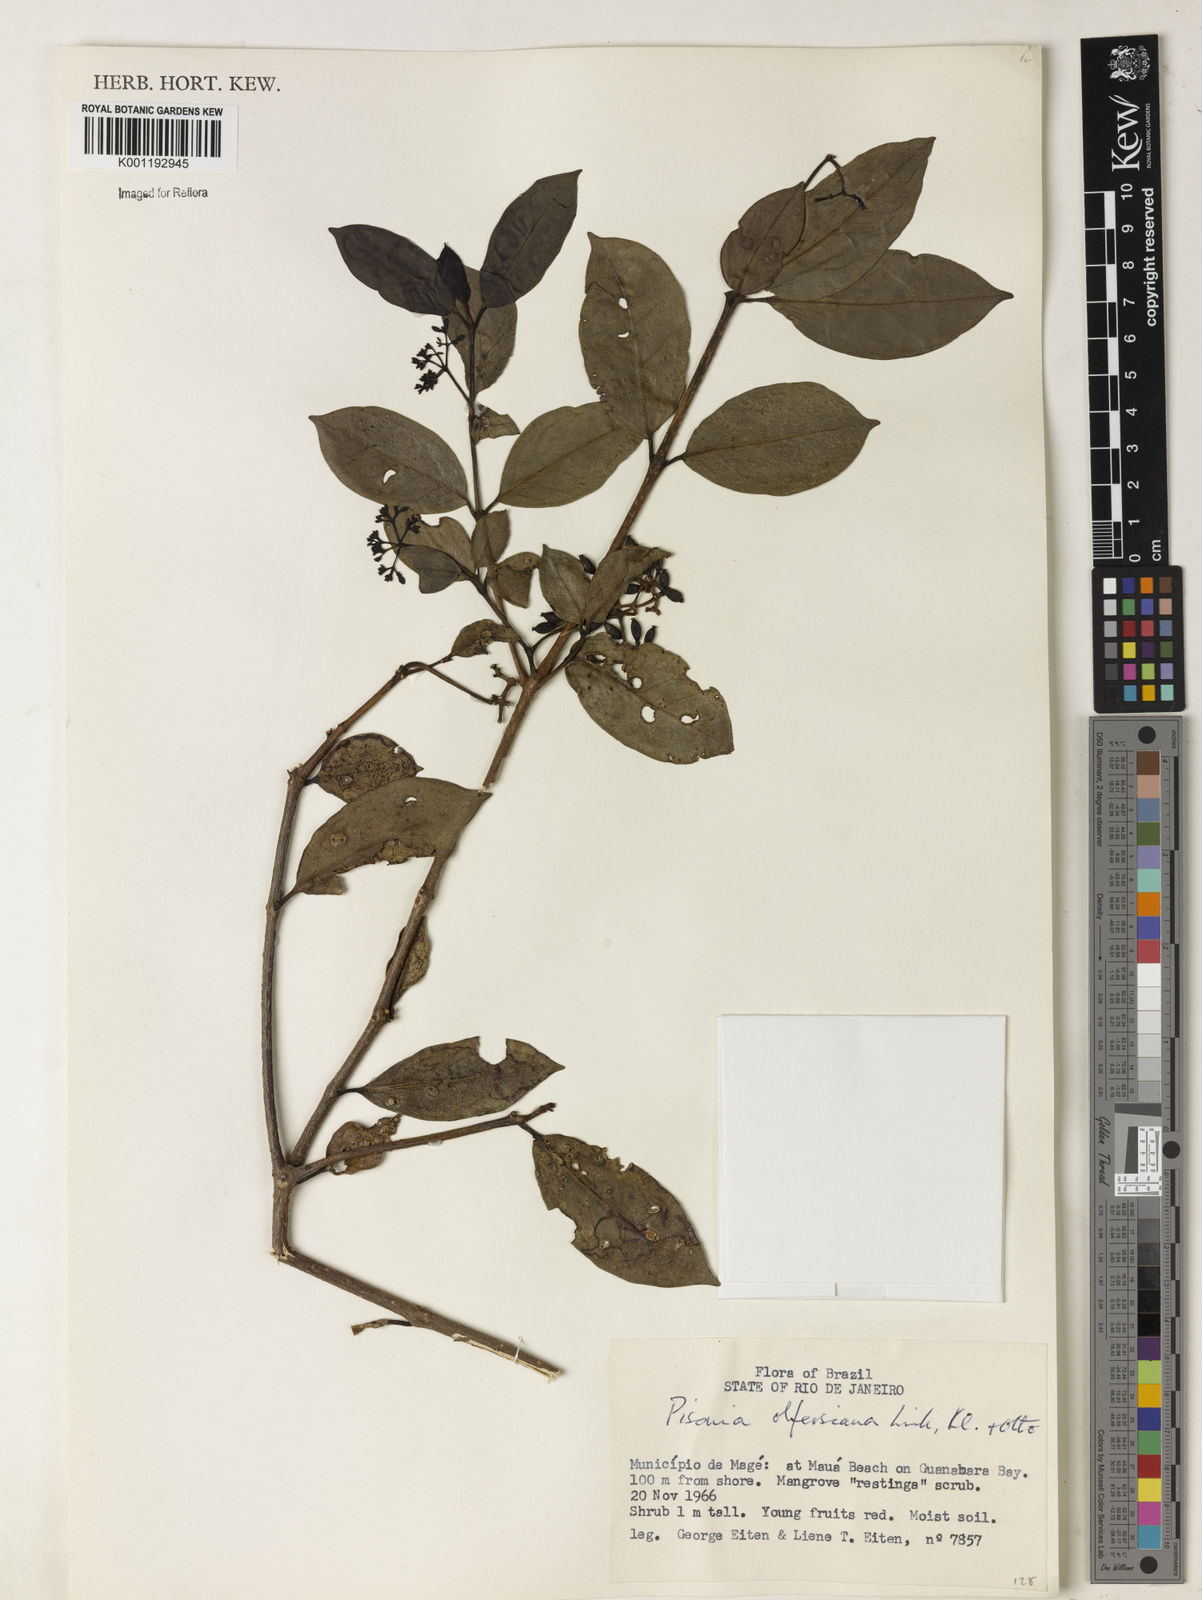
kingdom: Plantae
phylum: Tracheophyta
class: Magnoliopsida
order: Caryophyllales
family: Nyctaginaceae
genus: Guapira
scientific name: Guapira
